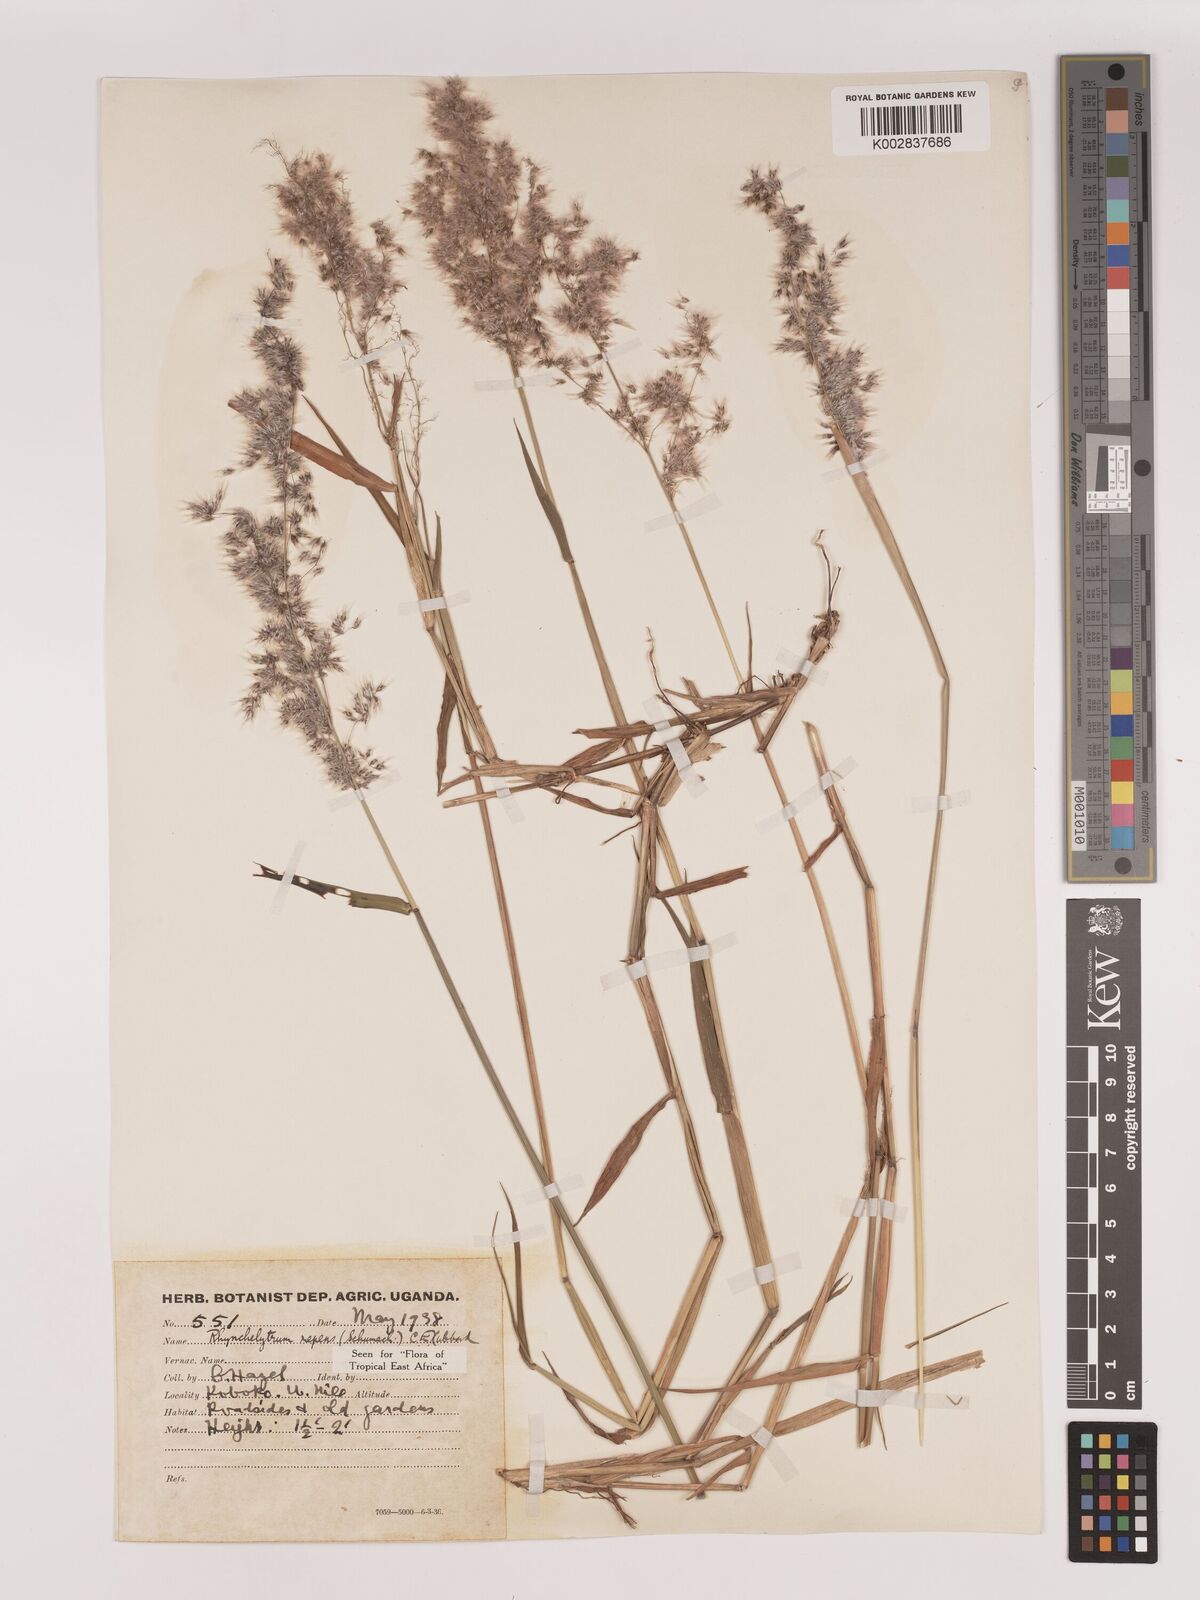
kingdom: Plantae
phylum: Tracheophyta
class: Liliopsida
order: Poales
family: Poaceae
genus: Melinis
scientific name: Melinis repens
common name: Rose natal grass
